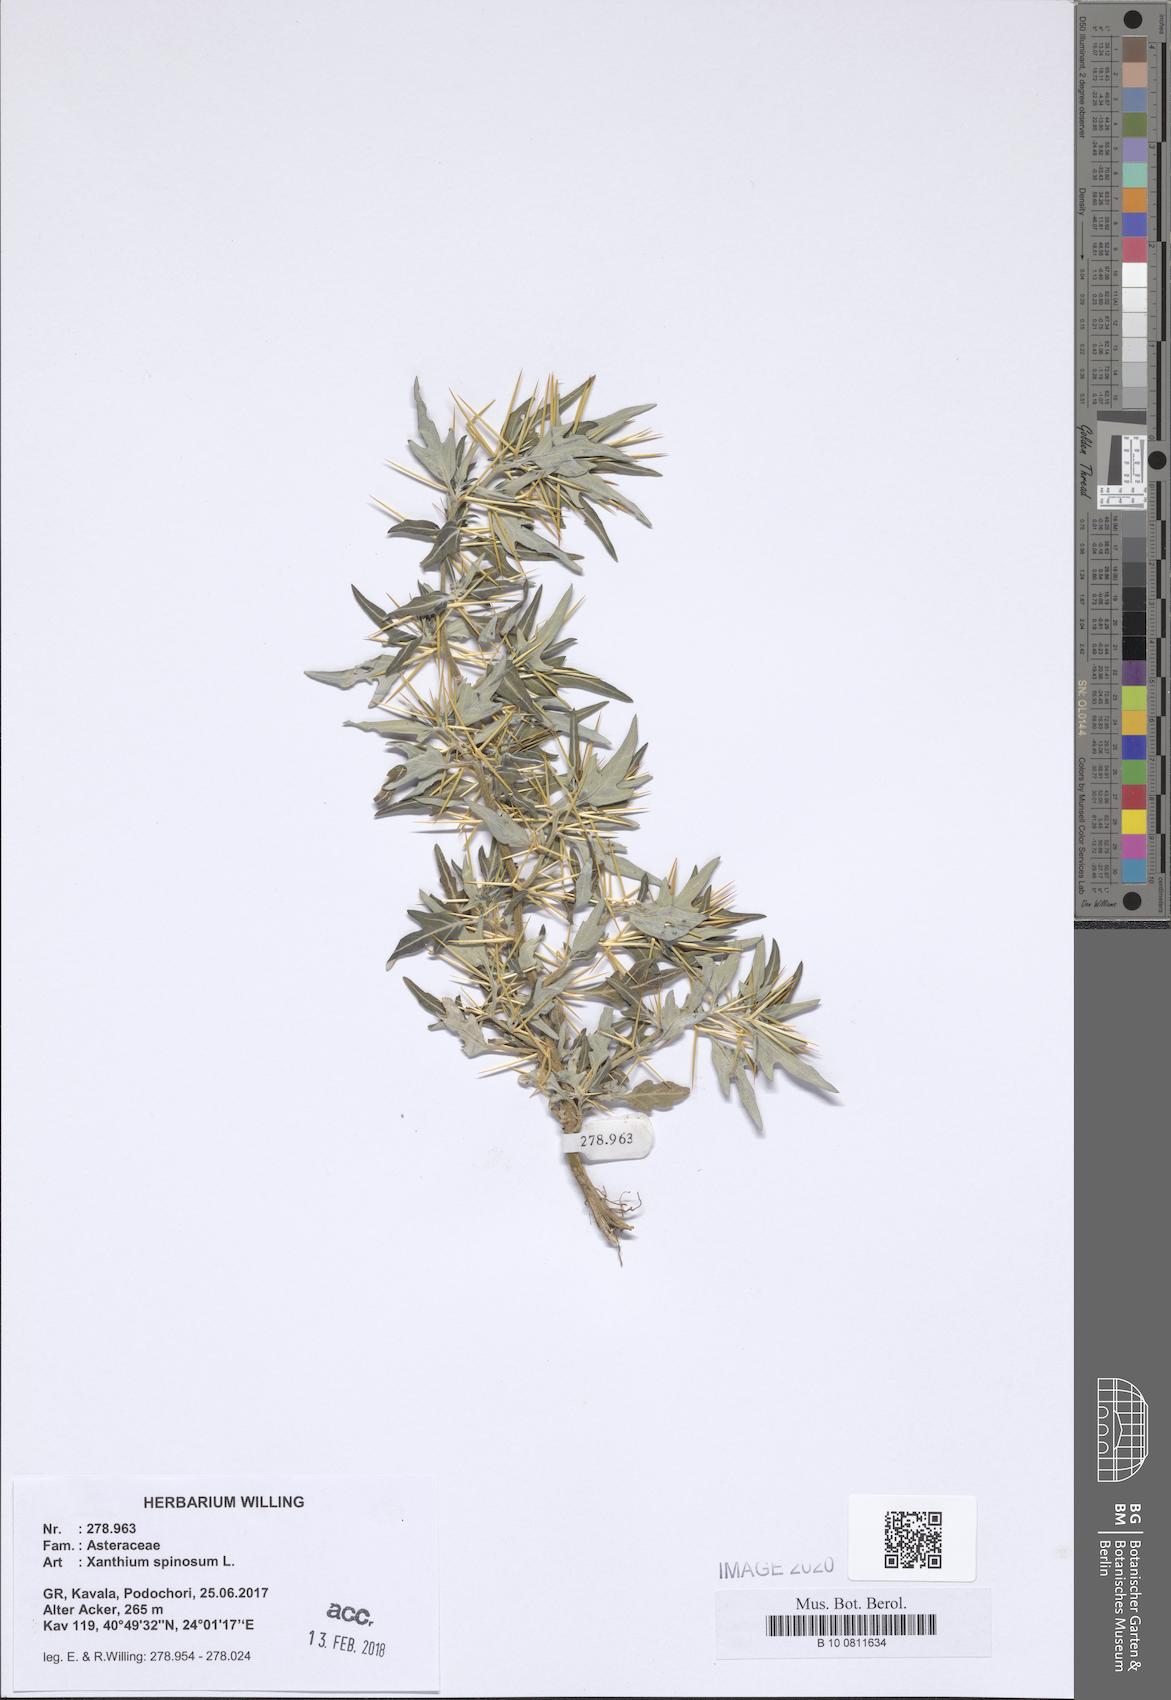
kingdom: Plantae
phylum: Tracheophyta
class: Magnoliopsida
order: Asterales
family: Asteraceae
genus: Xanthium
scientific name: Xanthium spinosum
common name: Spiny cocklebur
